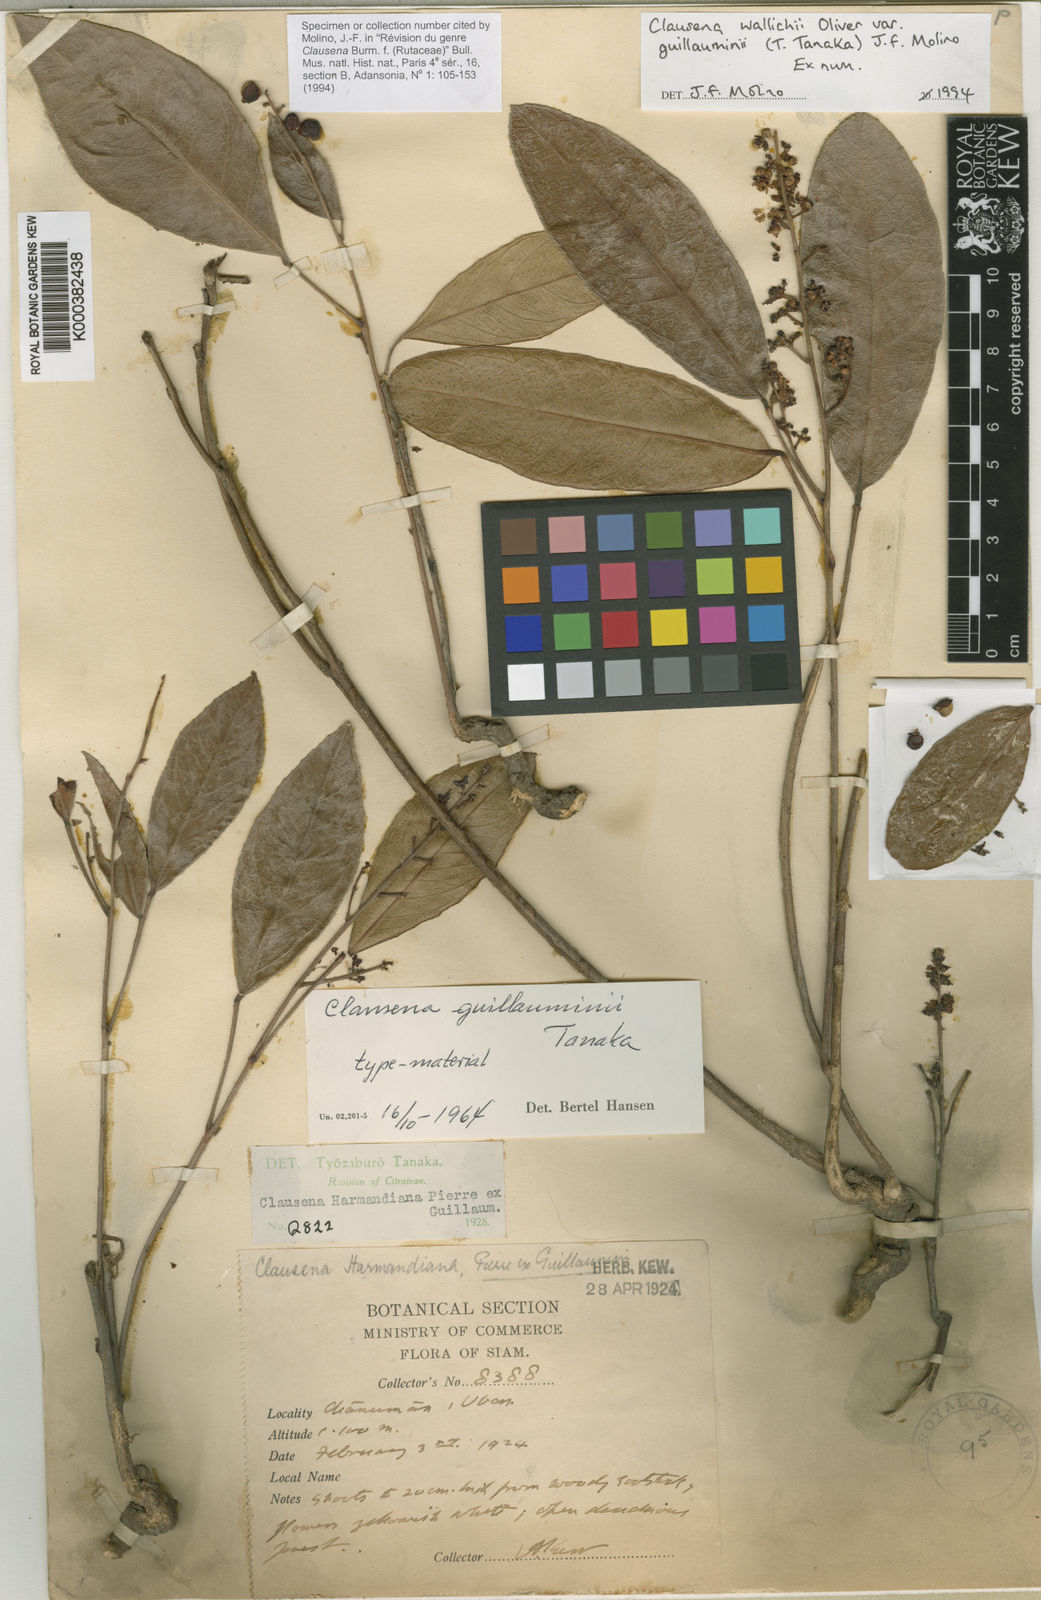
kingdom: Plantae
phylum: Tracheophyta
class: Magnoliopsida
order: Sapindales
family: Rutaceae
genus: Clausena
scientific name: Clausena wallichii
